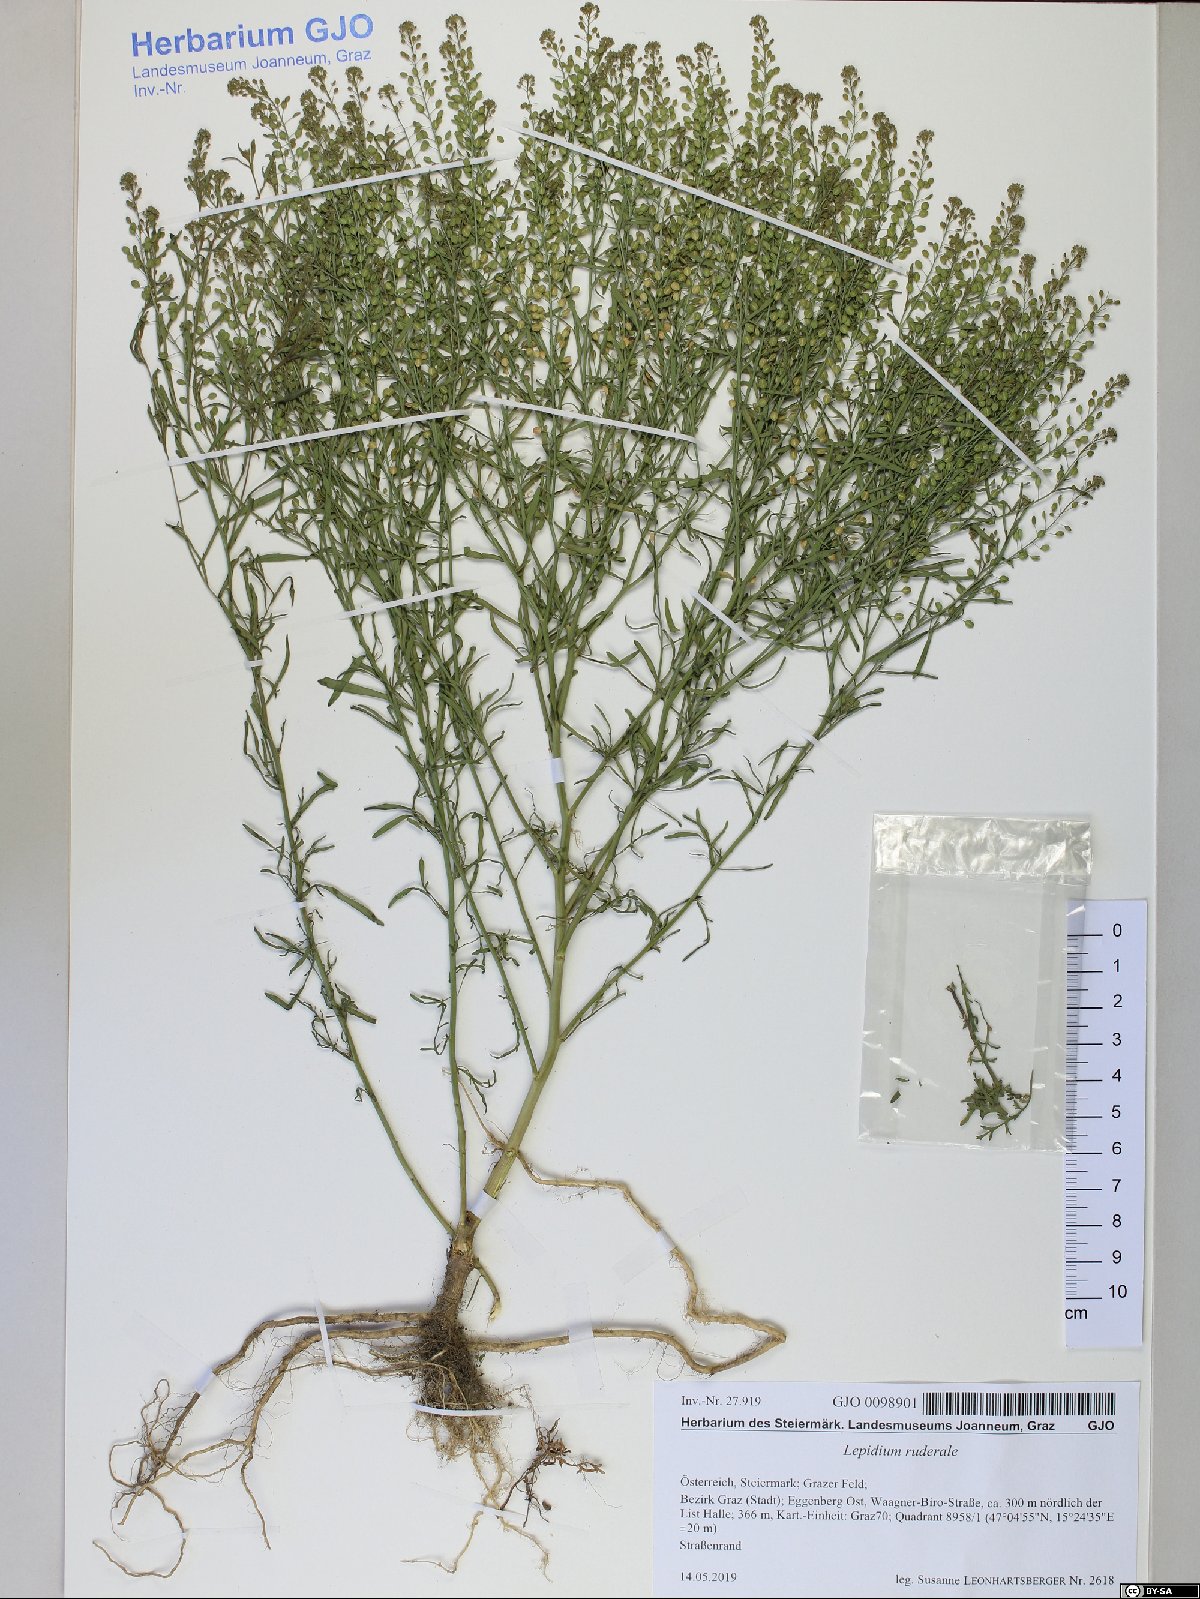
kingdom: Plantae
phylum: Tracheophyta
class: Magnoliopsida
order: Brassicales
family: Brassicaceae
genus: Lepidium
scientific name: Lepidium ruderale
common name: Narrow-leaved pepperwort
